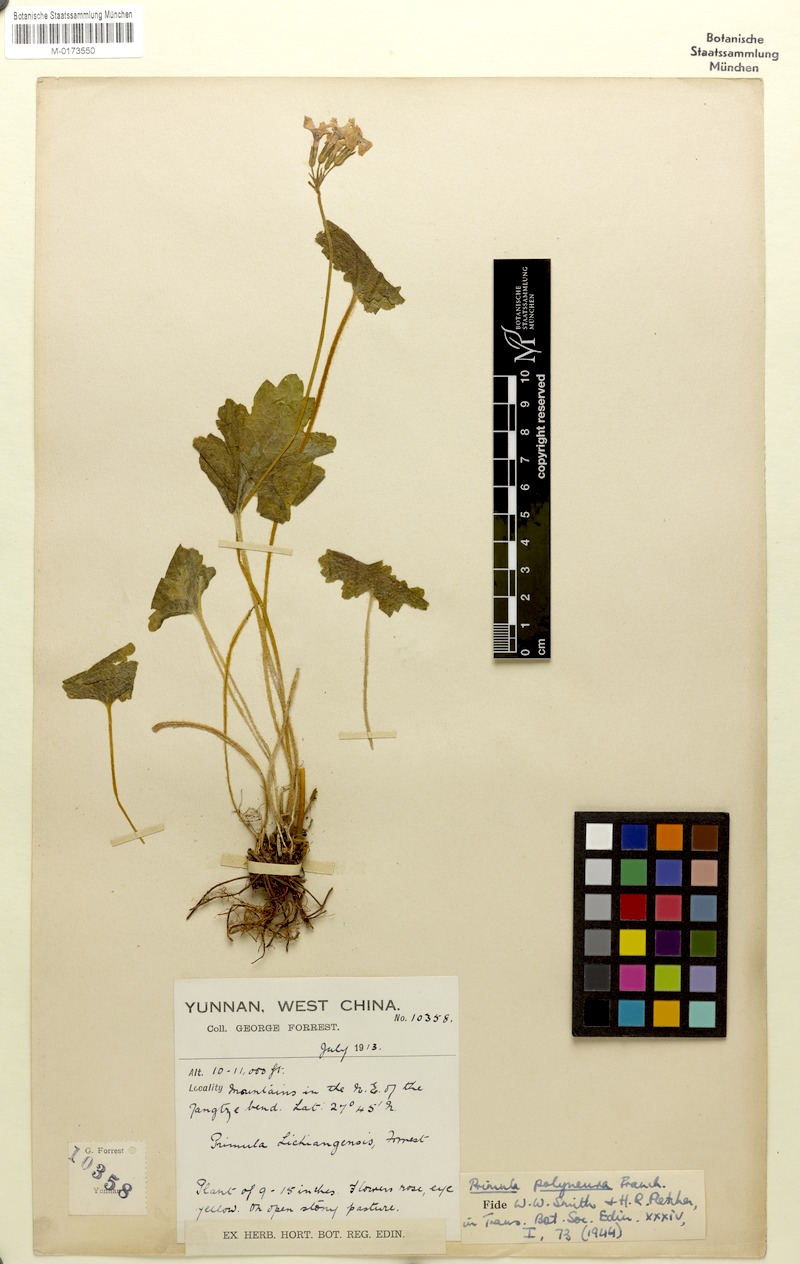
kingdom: Plantae
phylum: Tracheophyta
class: Magnoliopsida
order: Ericales
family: Primulaceae
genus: Primula
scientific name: Primula polyneura
